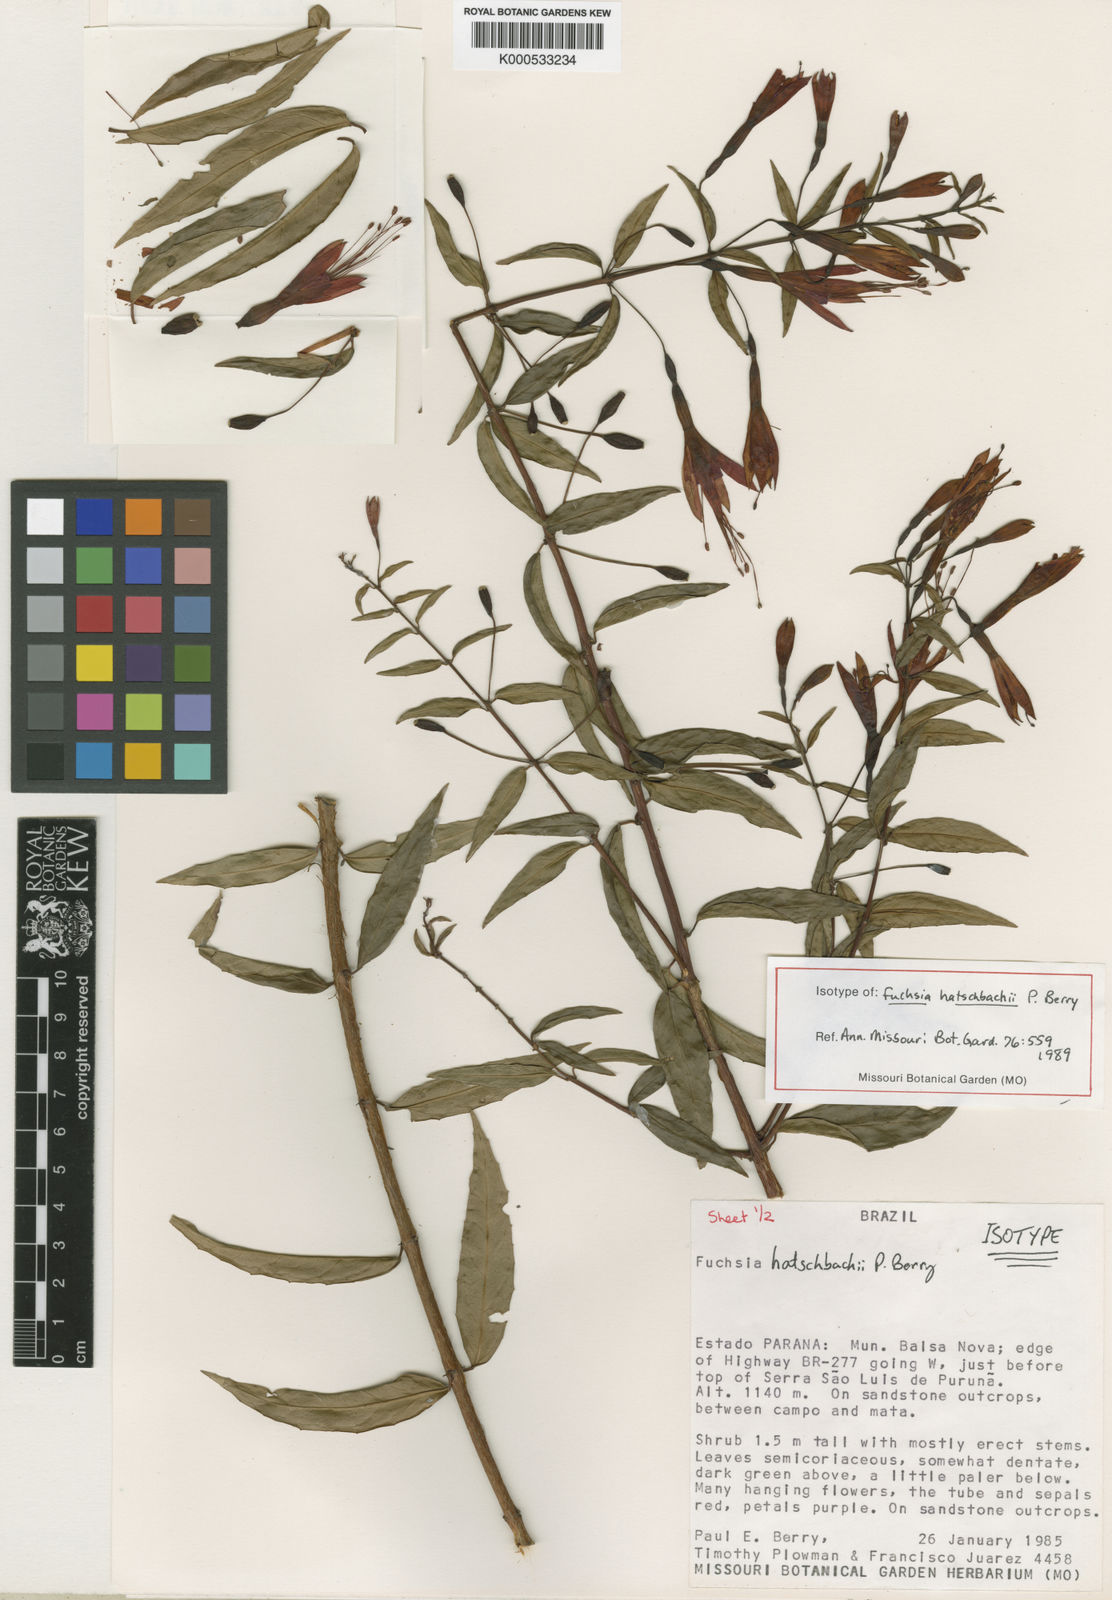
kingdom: Plantae
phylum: Tracheophyta
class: Magnoliopsida
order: Myrtales
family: Onagraceae
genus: Fuchsia
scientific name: Fuchsia hatschbachii
